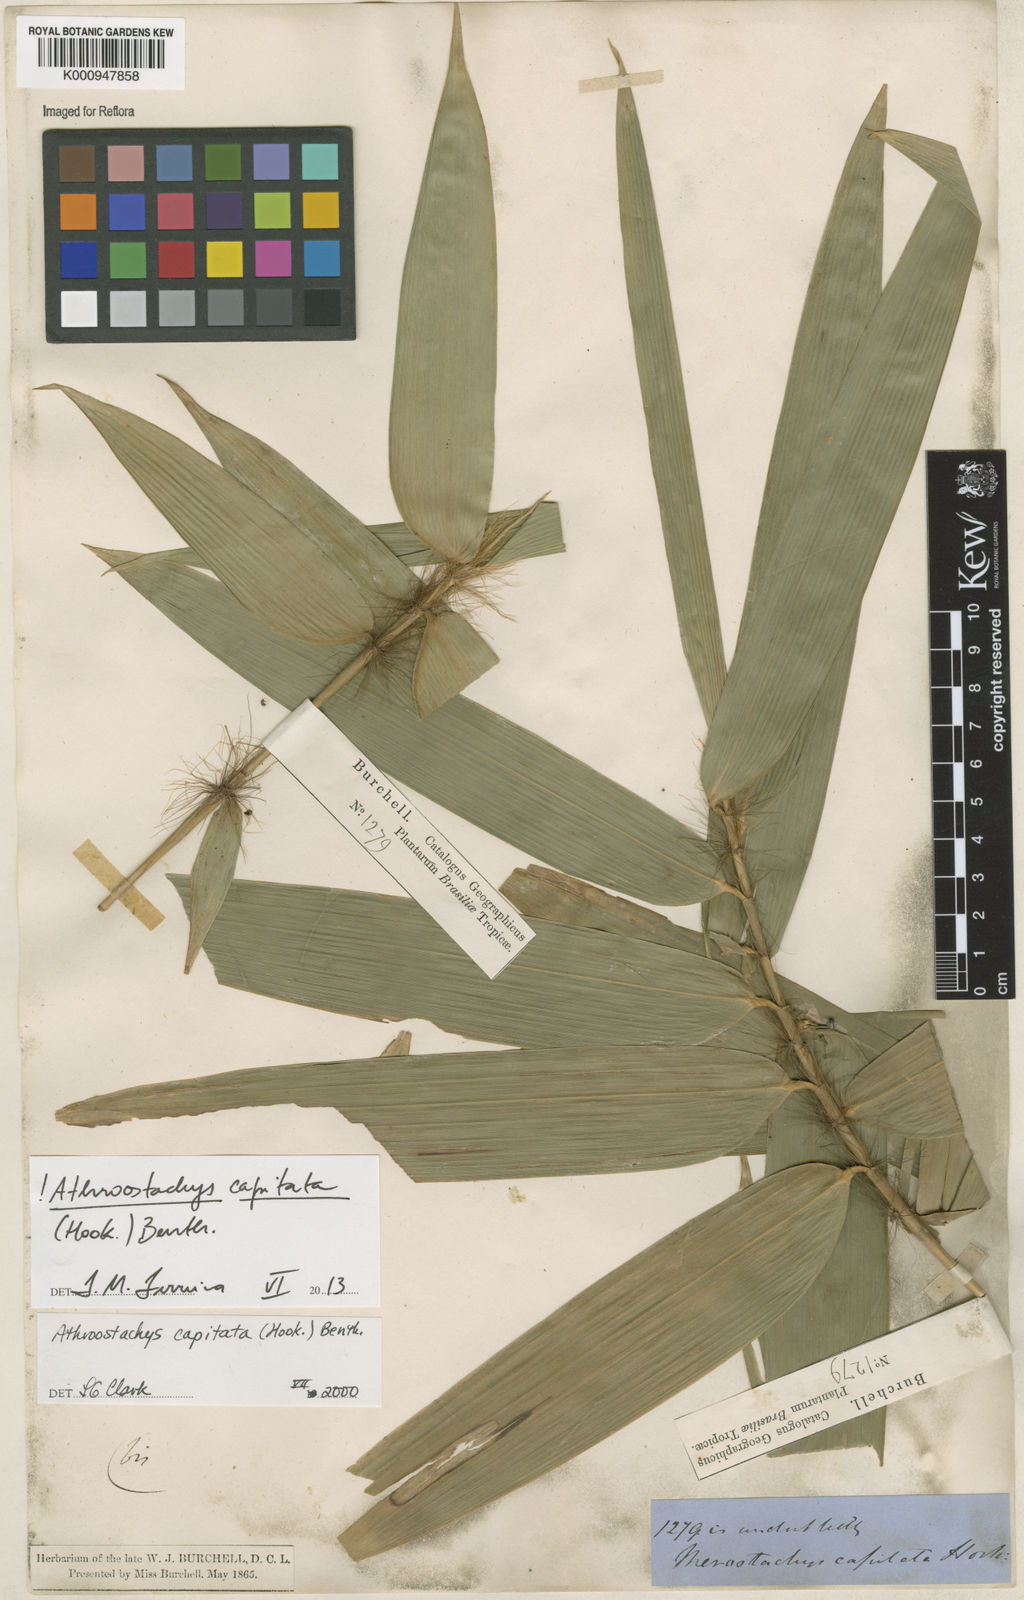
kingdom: Plantae
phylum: Tracheophyta
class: Liliopsida
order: Poales
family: Poaceae
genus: Athroostachys
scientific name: Athroostachys capitata
